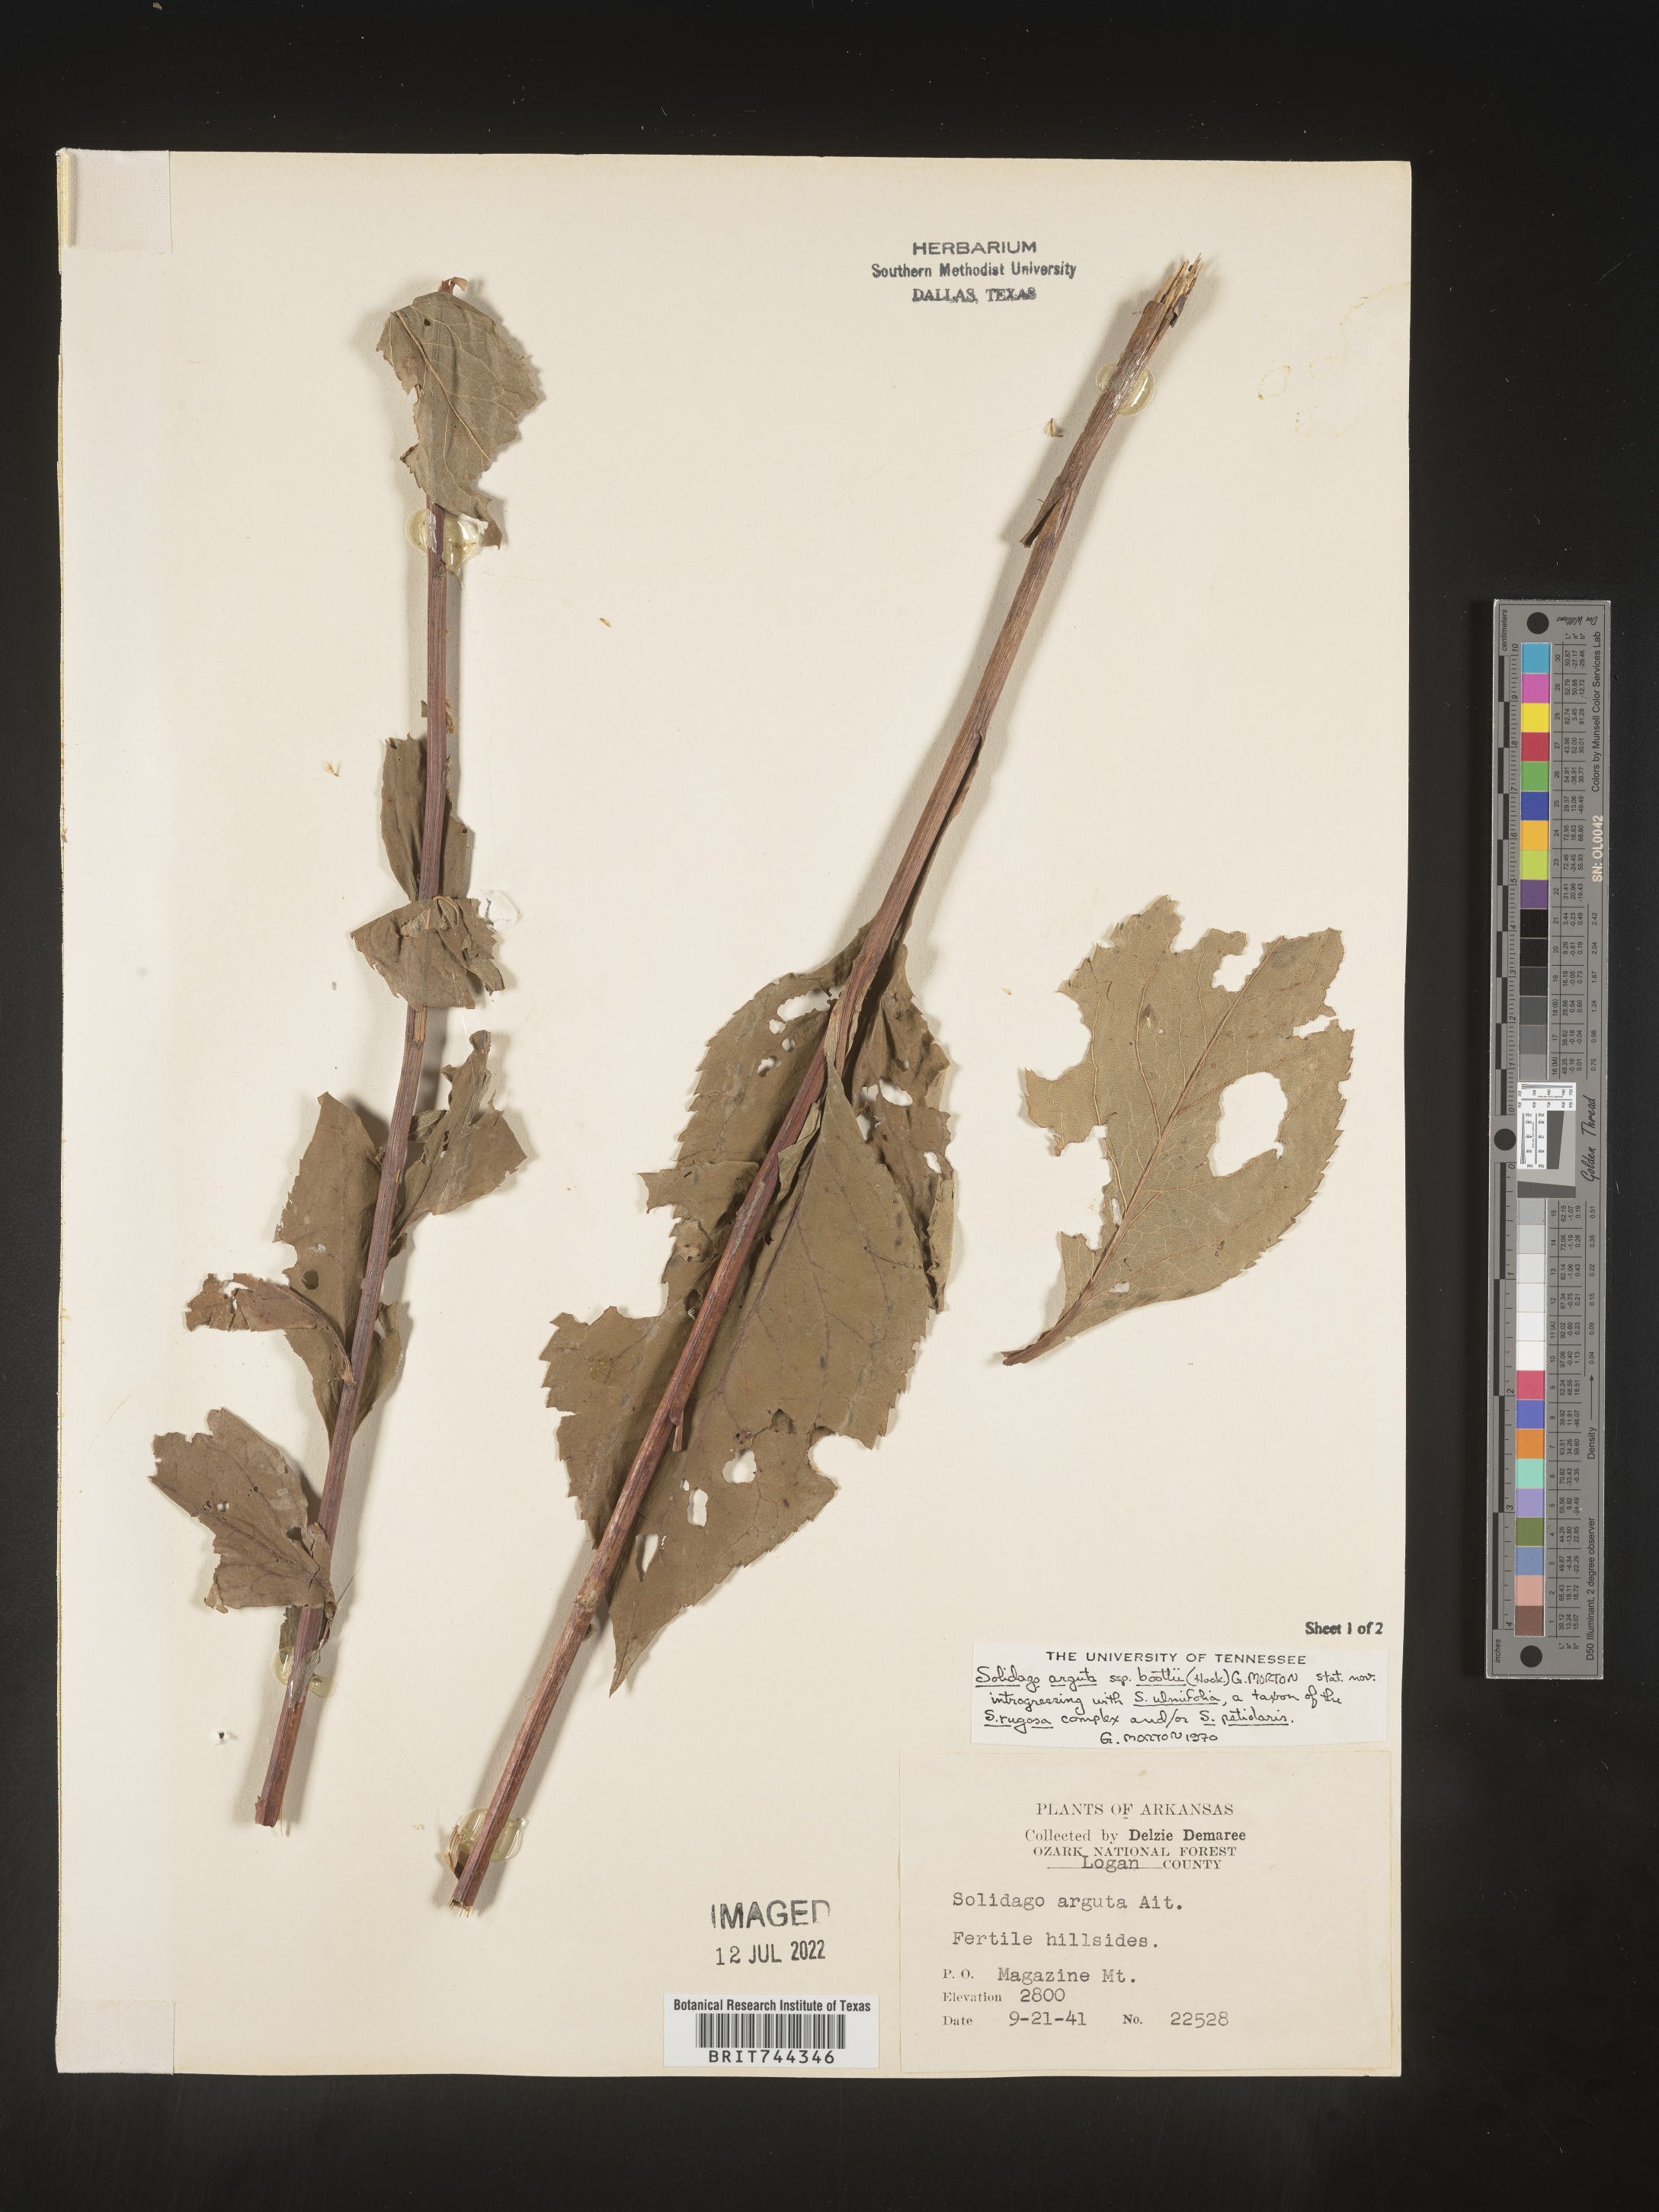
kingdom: Plantae
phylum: Tracheophyta
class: Magnoliopsida
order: Asterales
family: Asteraceae
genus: Solidago
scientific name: Solidago arguta
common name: Atlantic goldenrod
